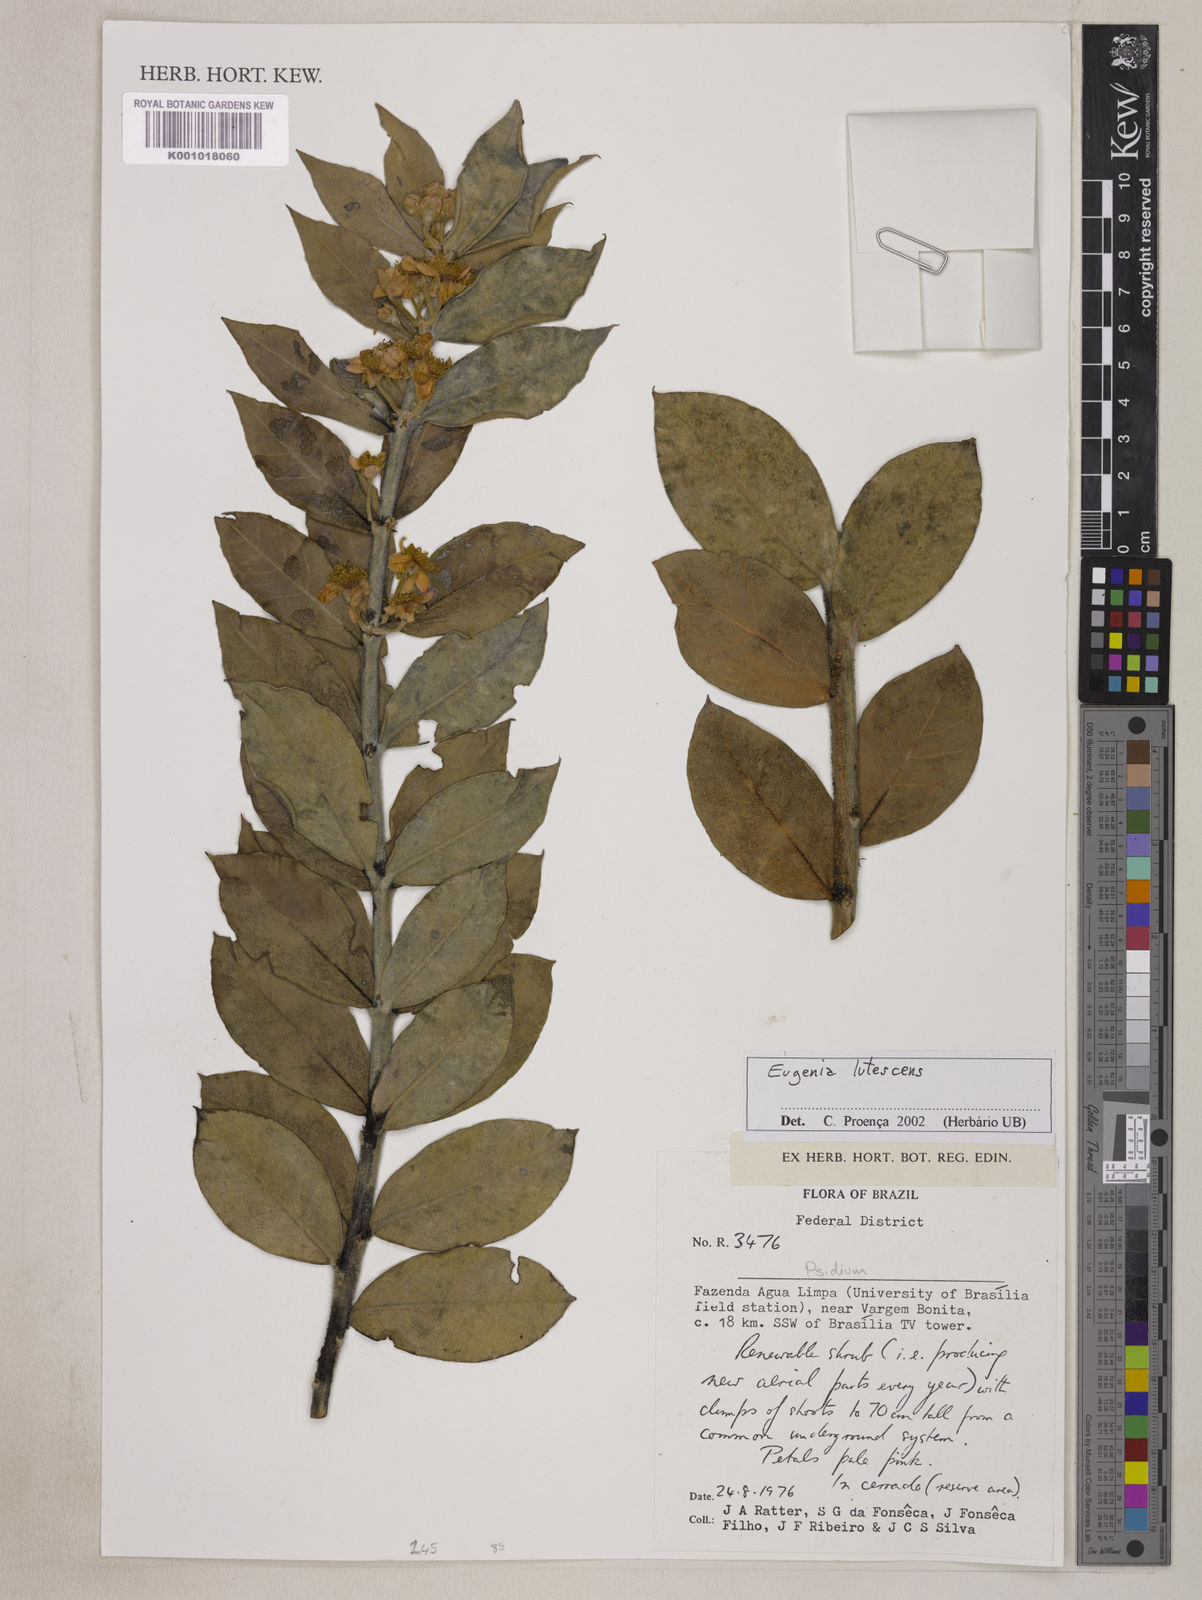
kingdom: Plantae
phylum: Tracheophyta
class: Magnoliopsida
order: Myrtales
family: Myrtaceae
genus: Eugenia
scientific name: Eugenia lutescens
